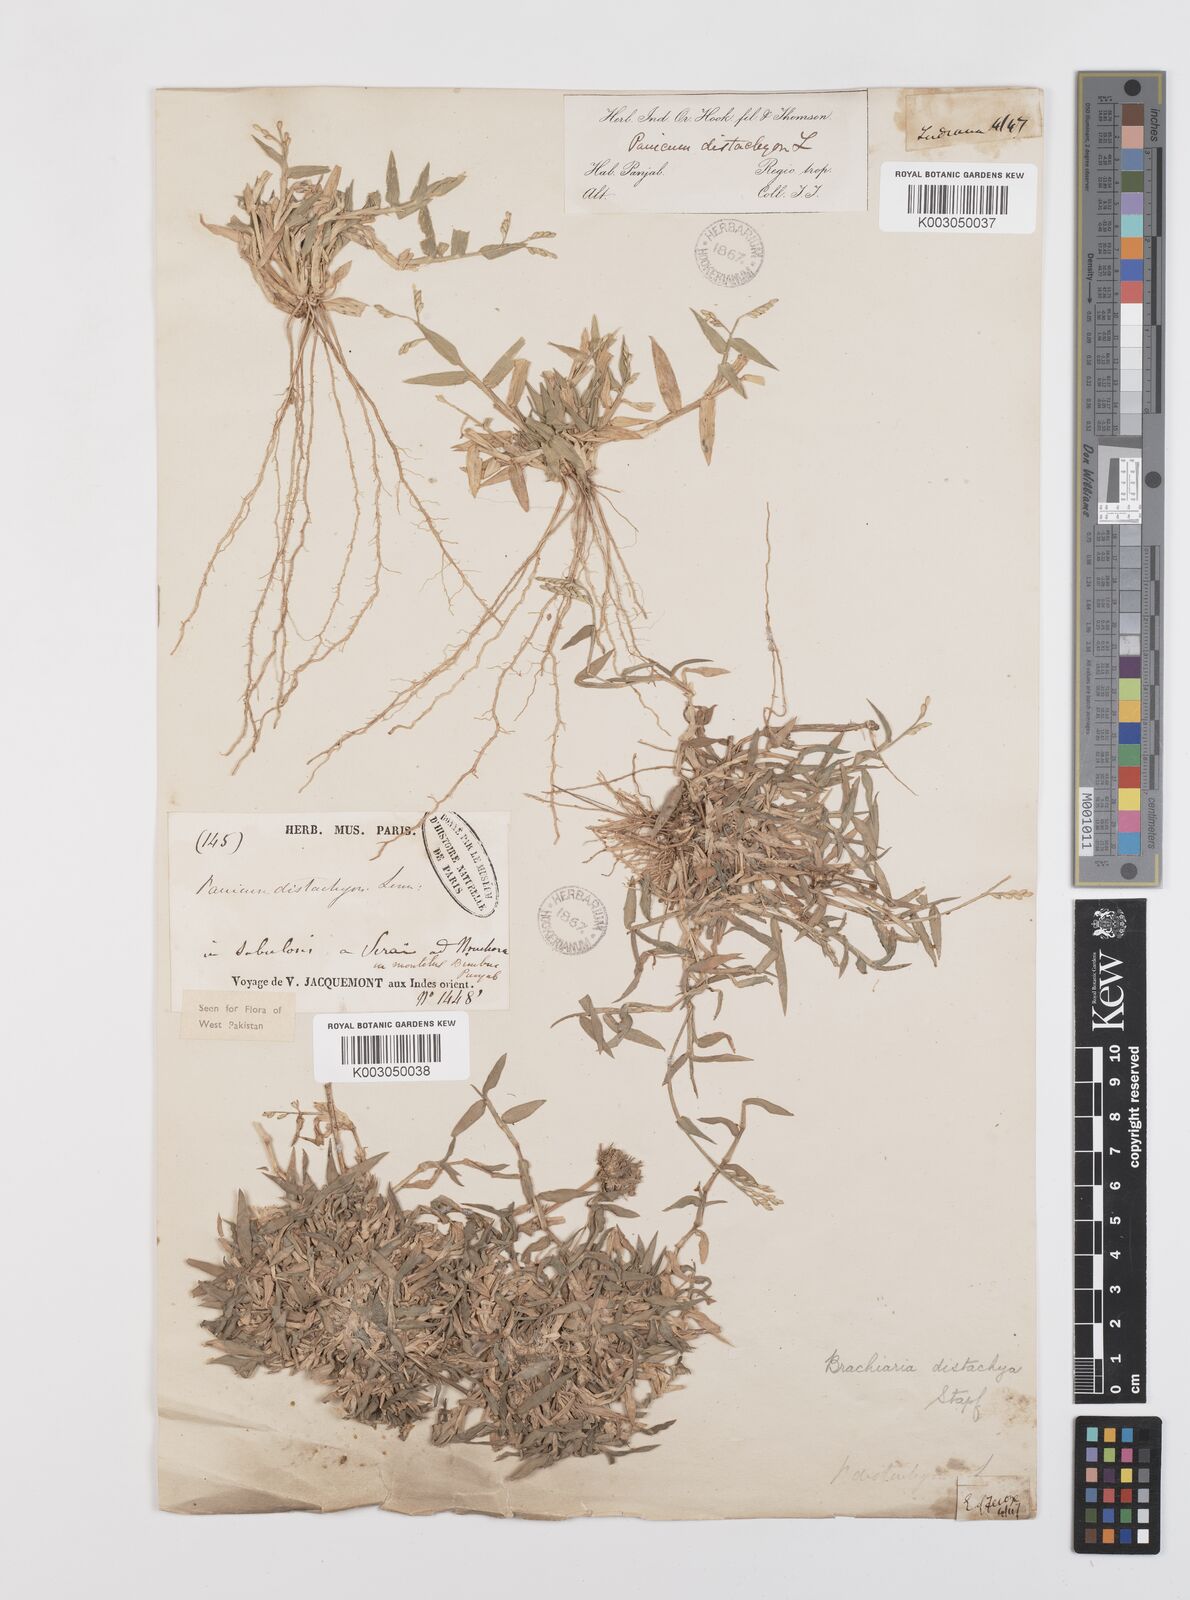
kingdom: Plantae
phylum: Tracheophyta
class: Liliopsida
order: Poales
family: Poaceae
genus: Urochloa
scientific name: Urochloa distachyos
